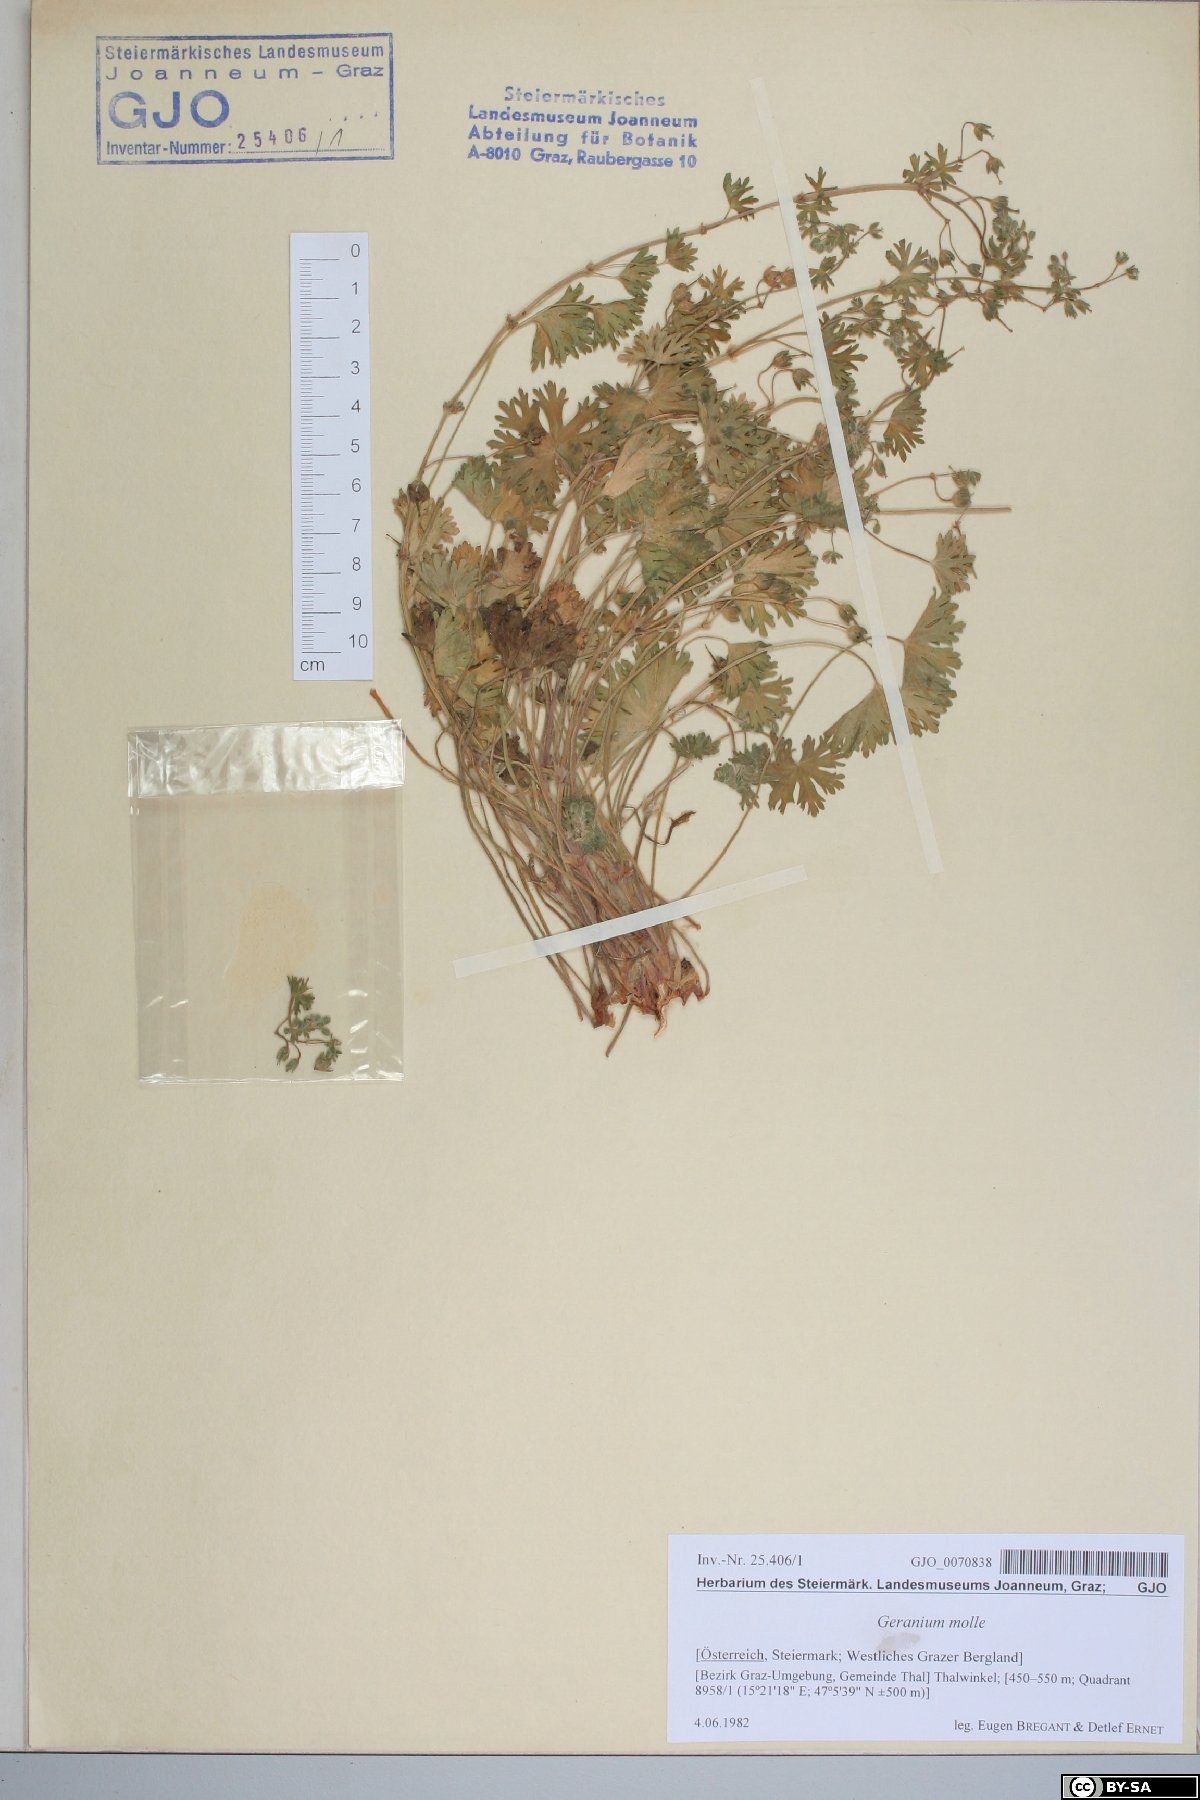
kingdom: Plantae
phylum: Tracheophyta
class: Magnoliopsida
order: Geraniales
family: Geraniaceae
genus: Geranium
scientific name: Geranium molle
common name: Dove's-foot crane's-bill
